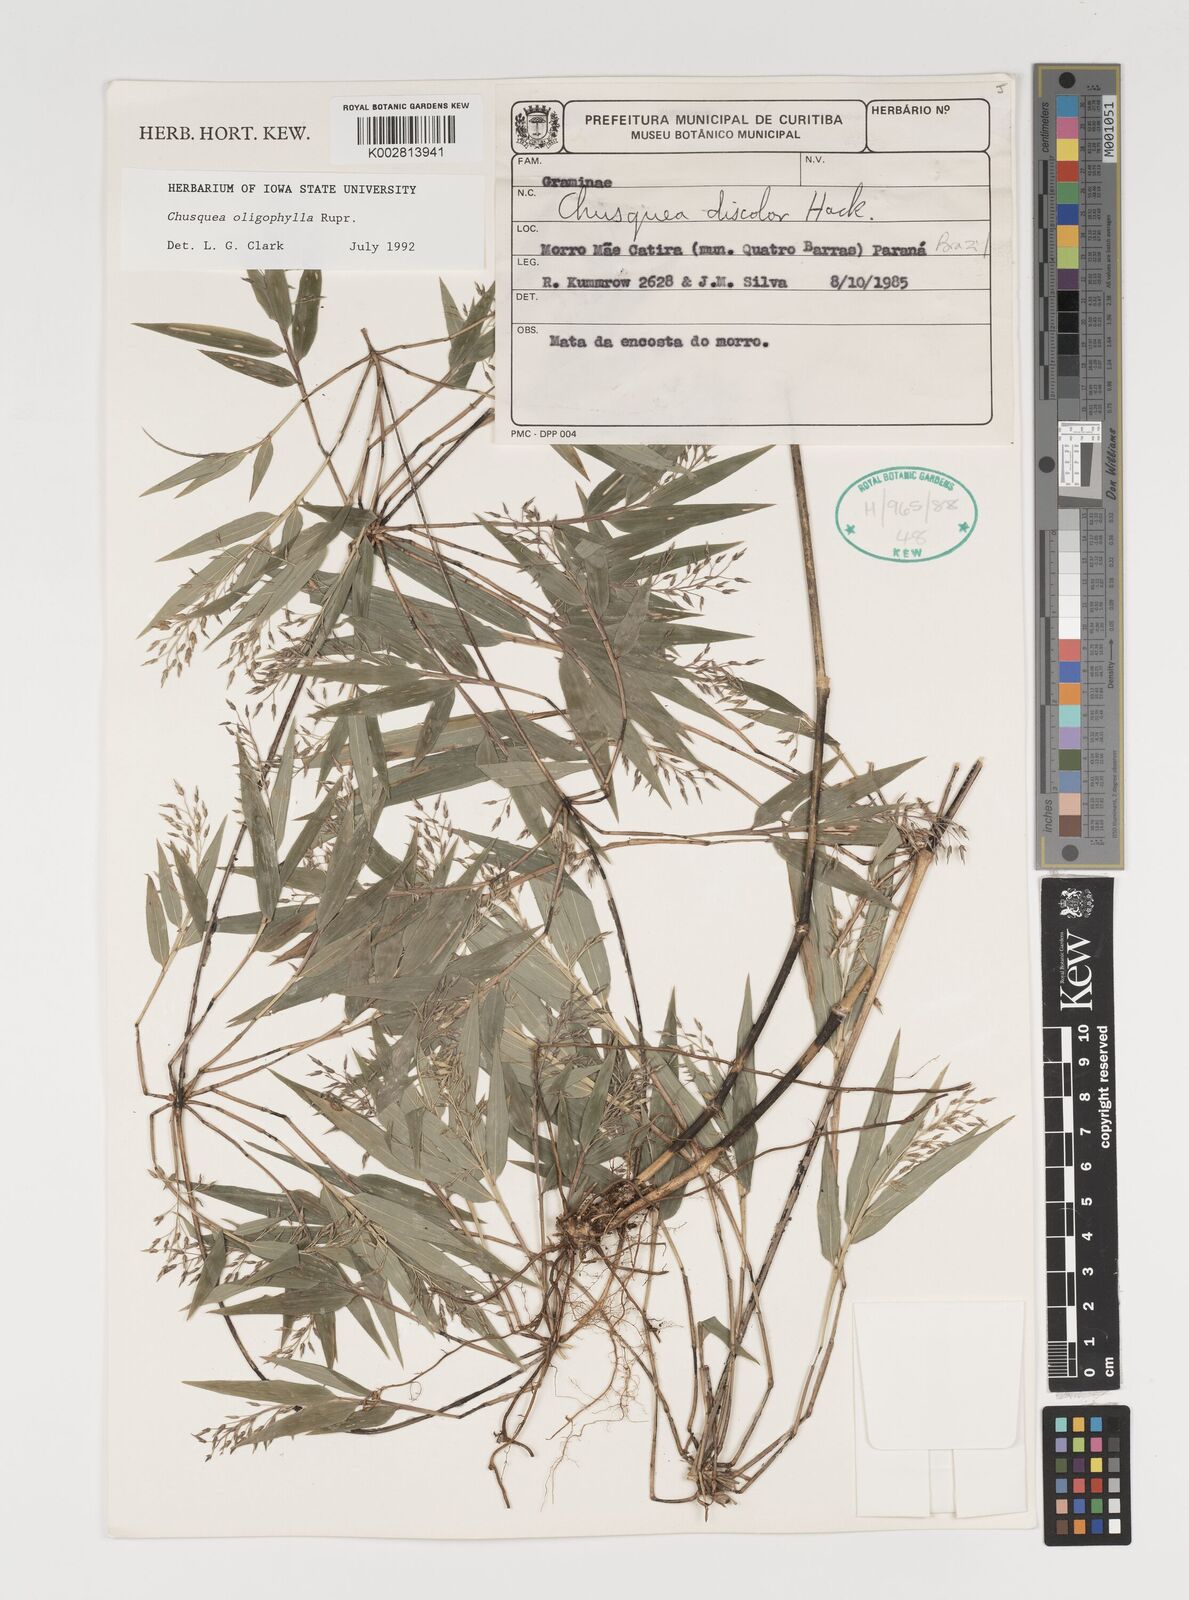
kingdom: Plantae
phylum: Tracheophyta
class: Liliopsida
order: Poales
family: Poaceae
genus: Chusquea
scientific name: Chusquea oligophylla
